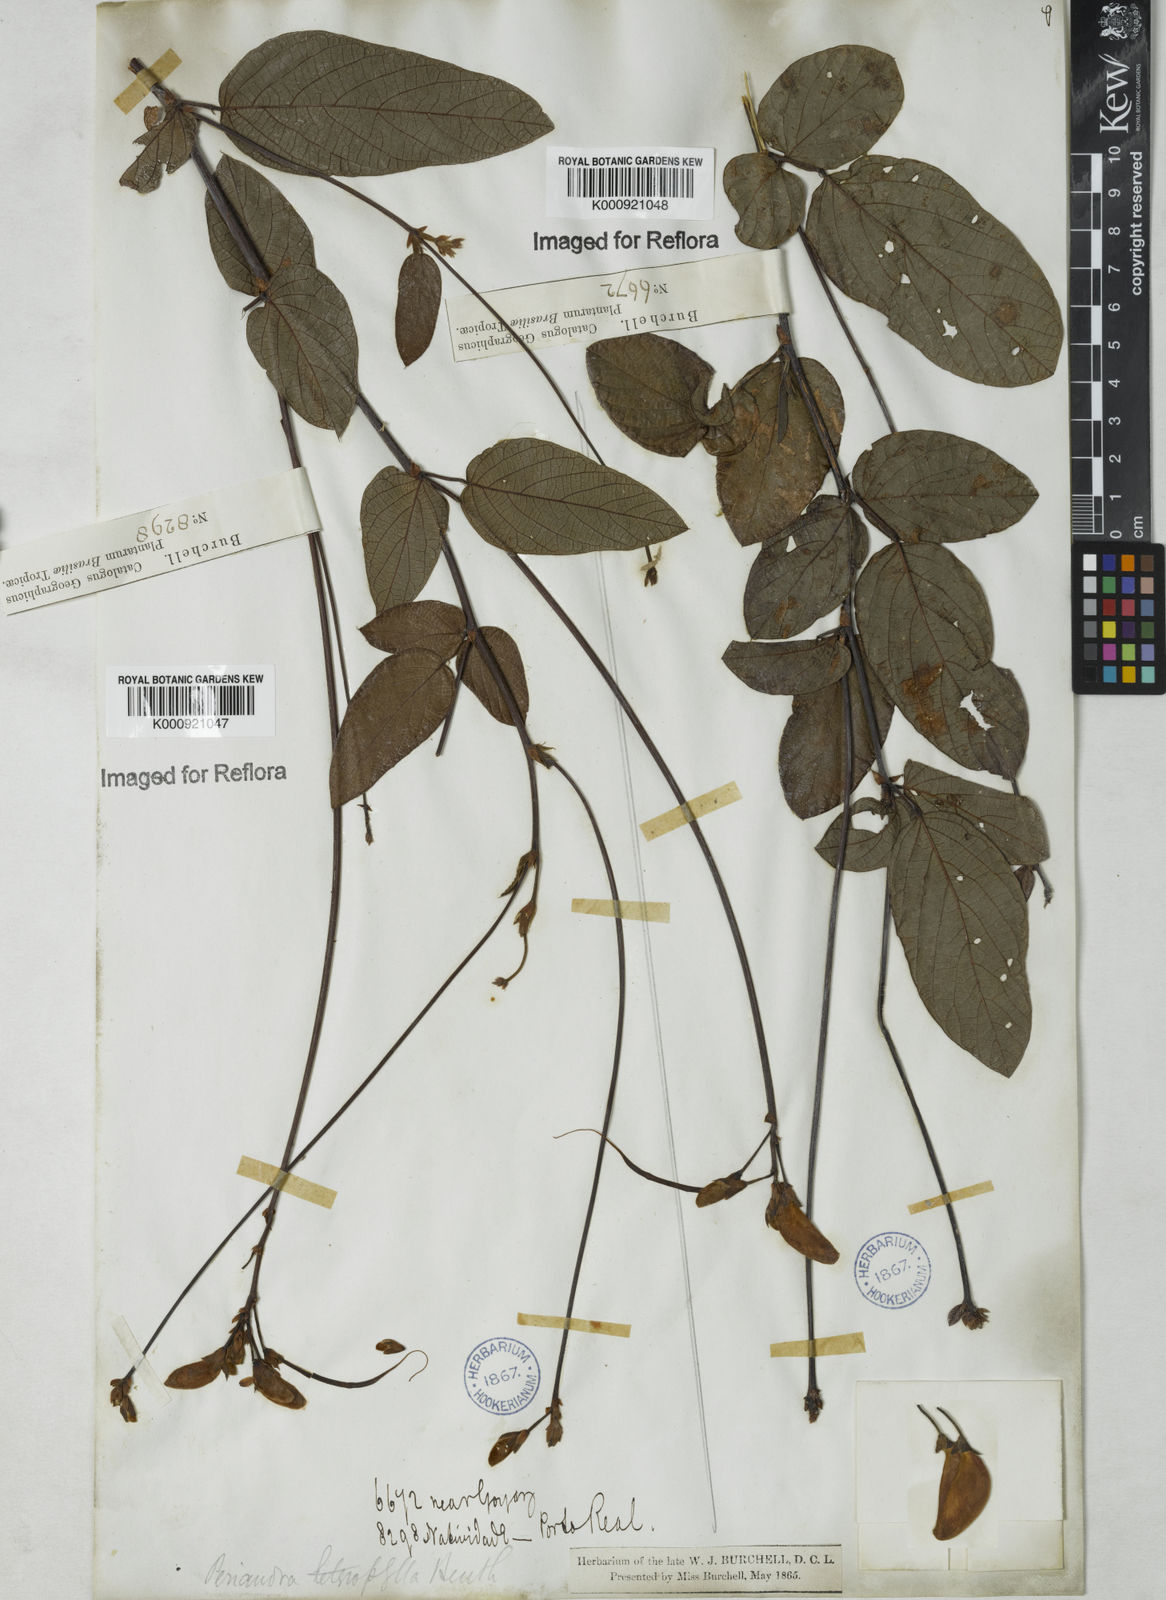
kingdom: Plantae
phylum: Tracheophyta
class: Magnoliopsida
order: Fabales
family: Fabaceae
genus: Periandra
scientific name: Periandra heterophylla
